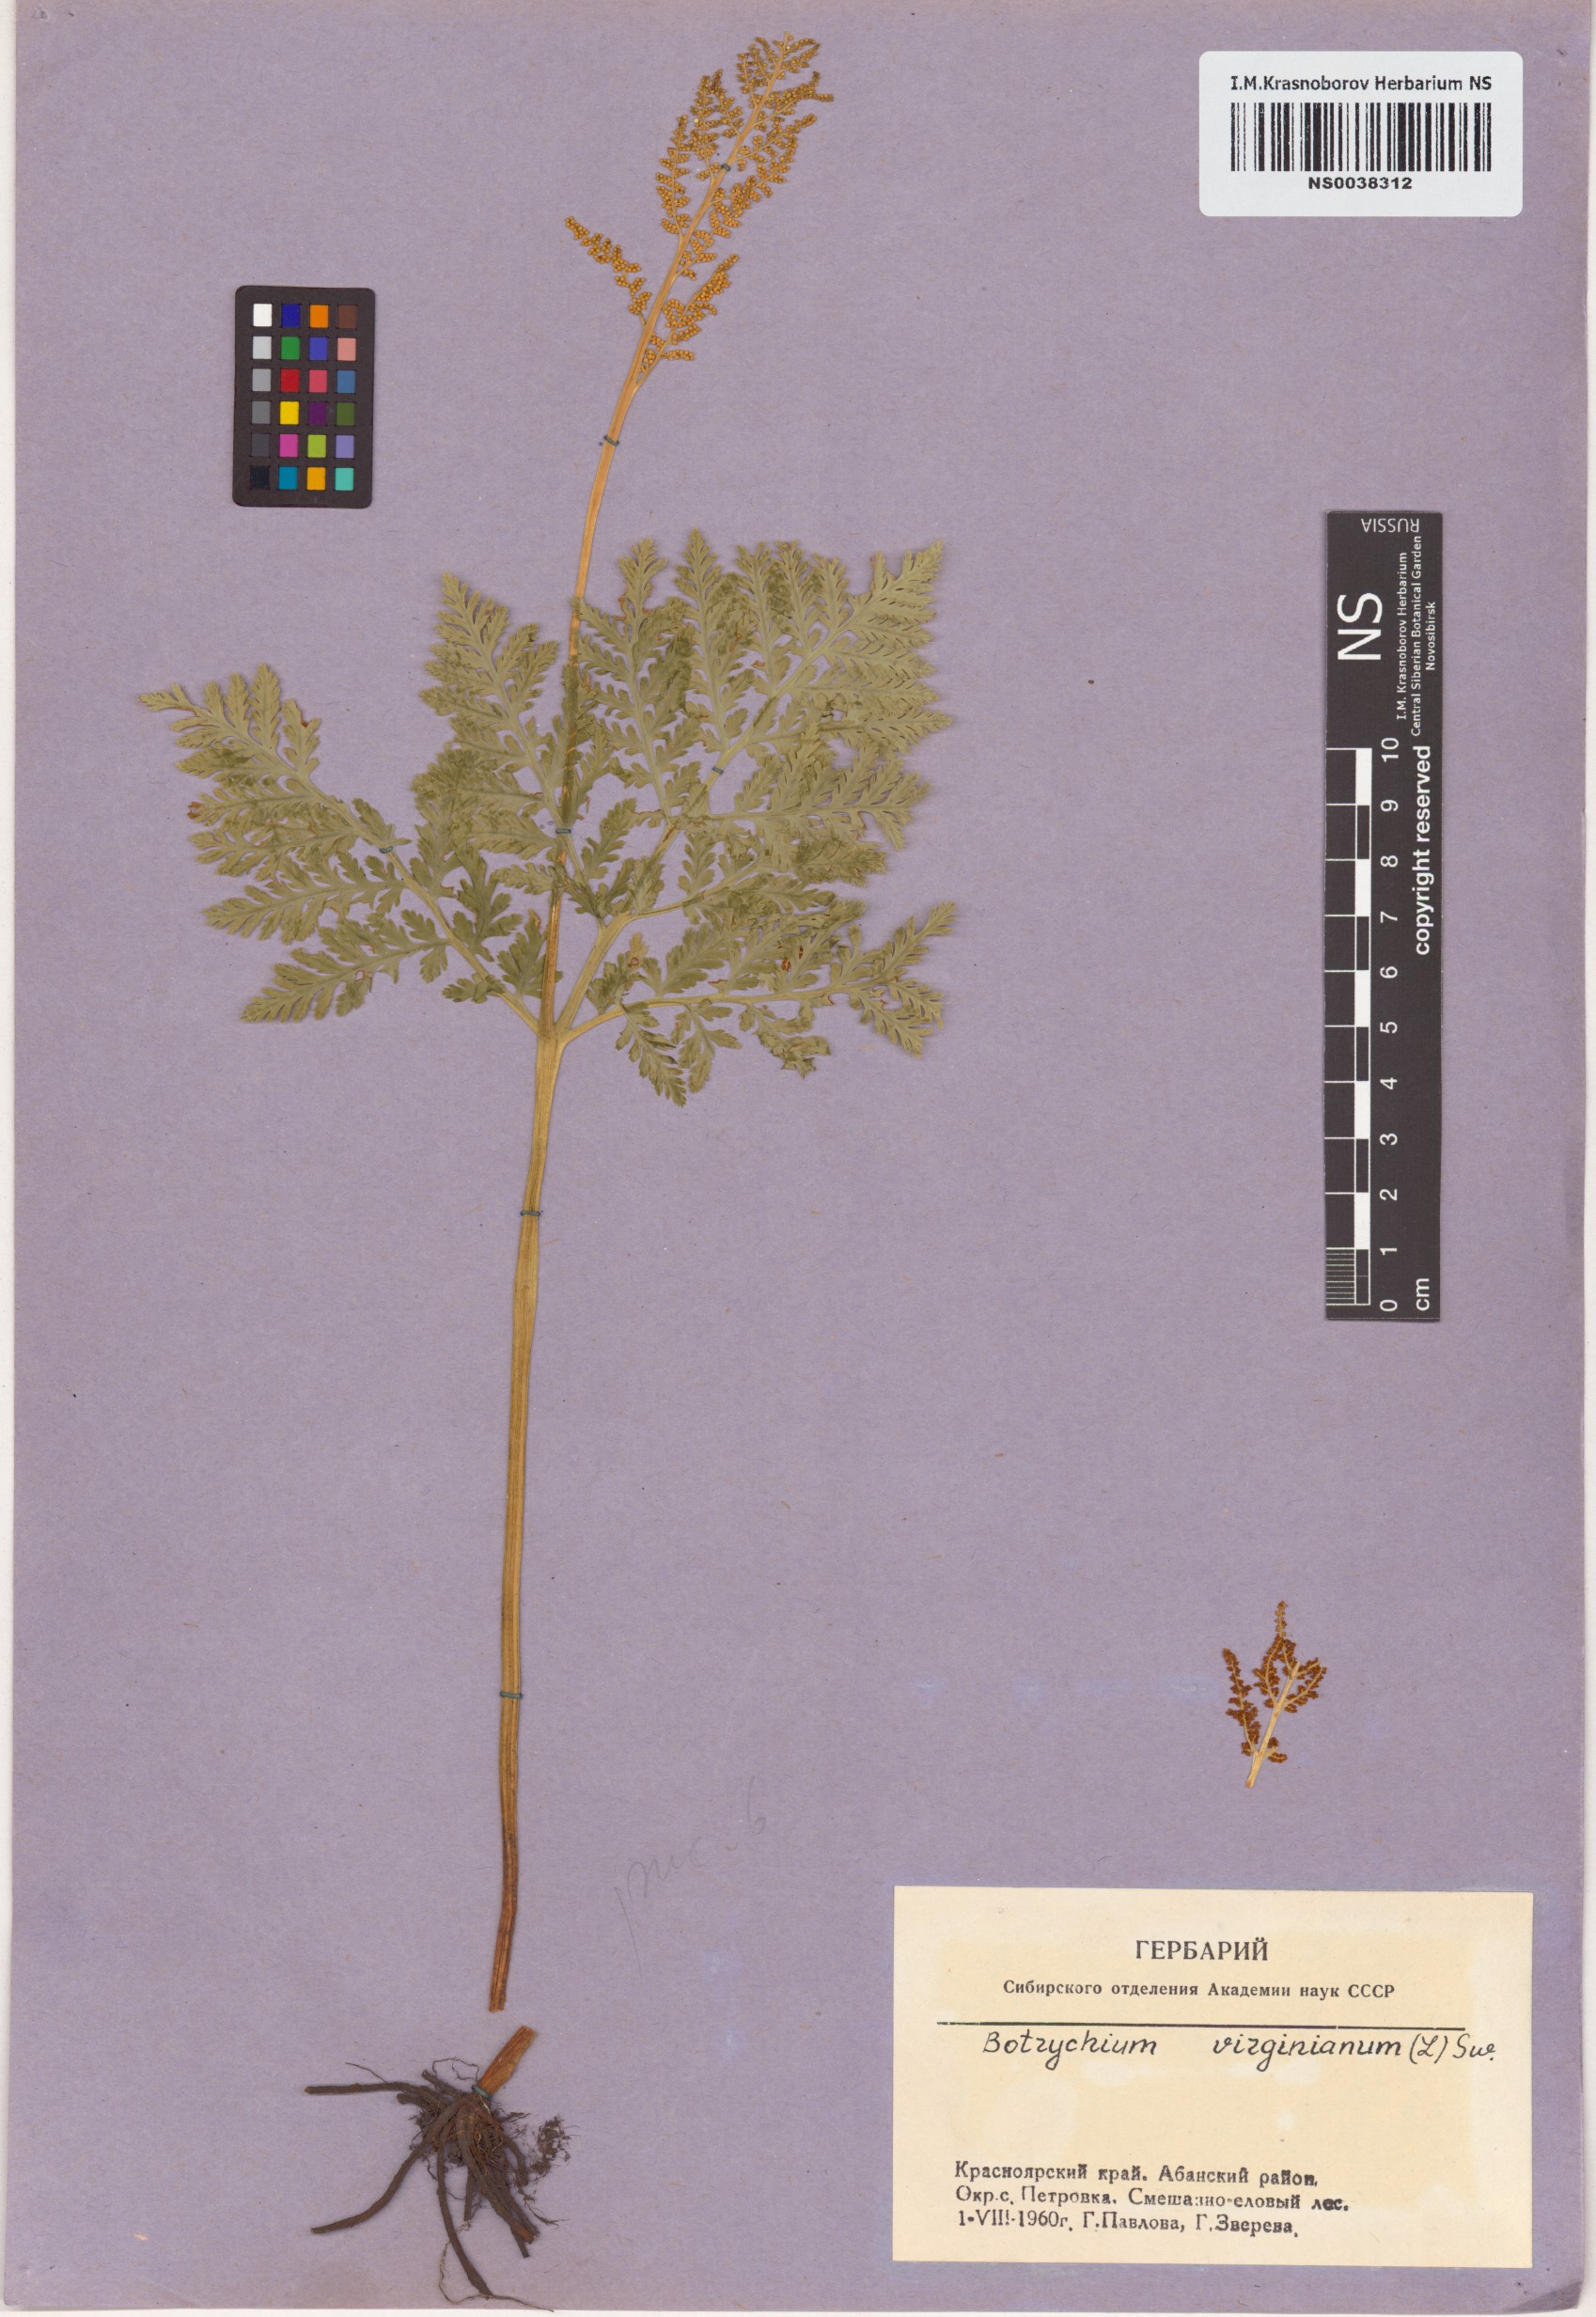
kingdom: Plantae
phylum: Tracheophyta
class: Polypodiopsida
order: Ophioglossales
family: Ophioglossaceae
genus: Botrypus
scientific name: Botrypus virginianus
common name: Common grapefern
